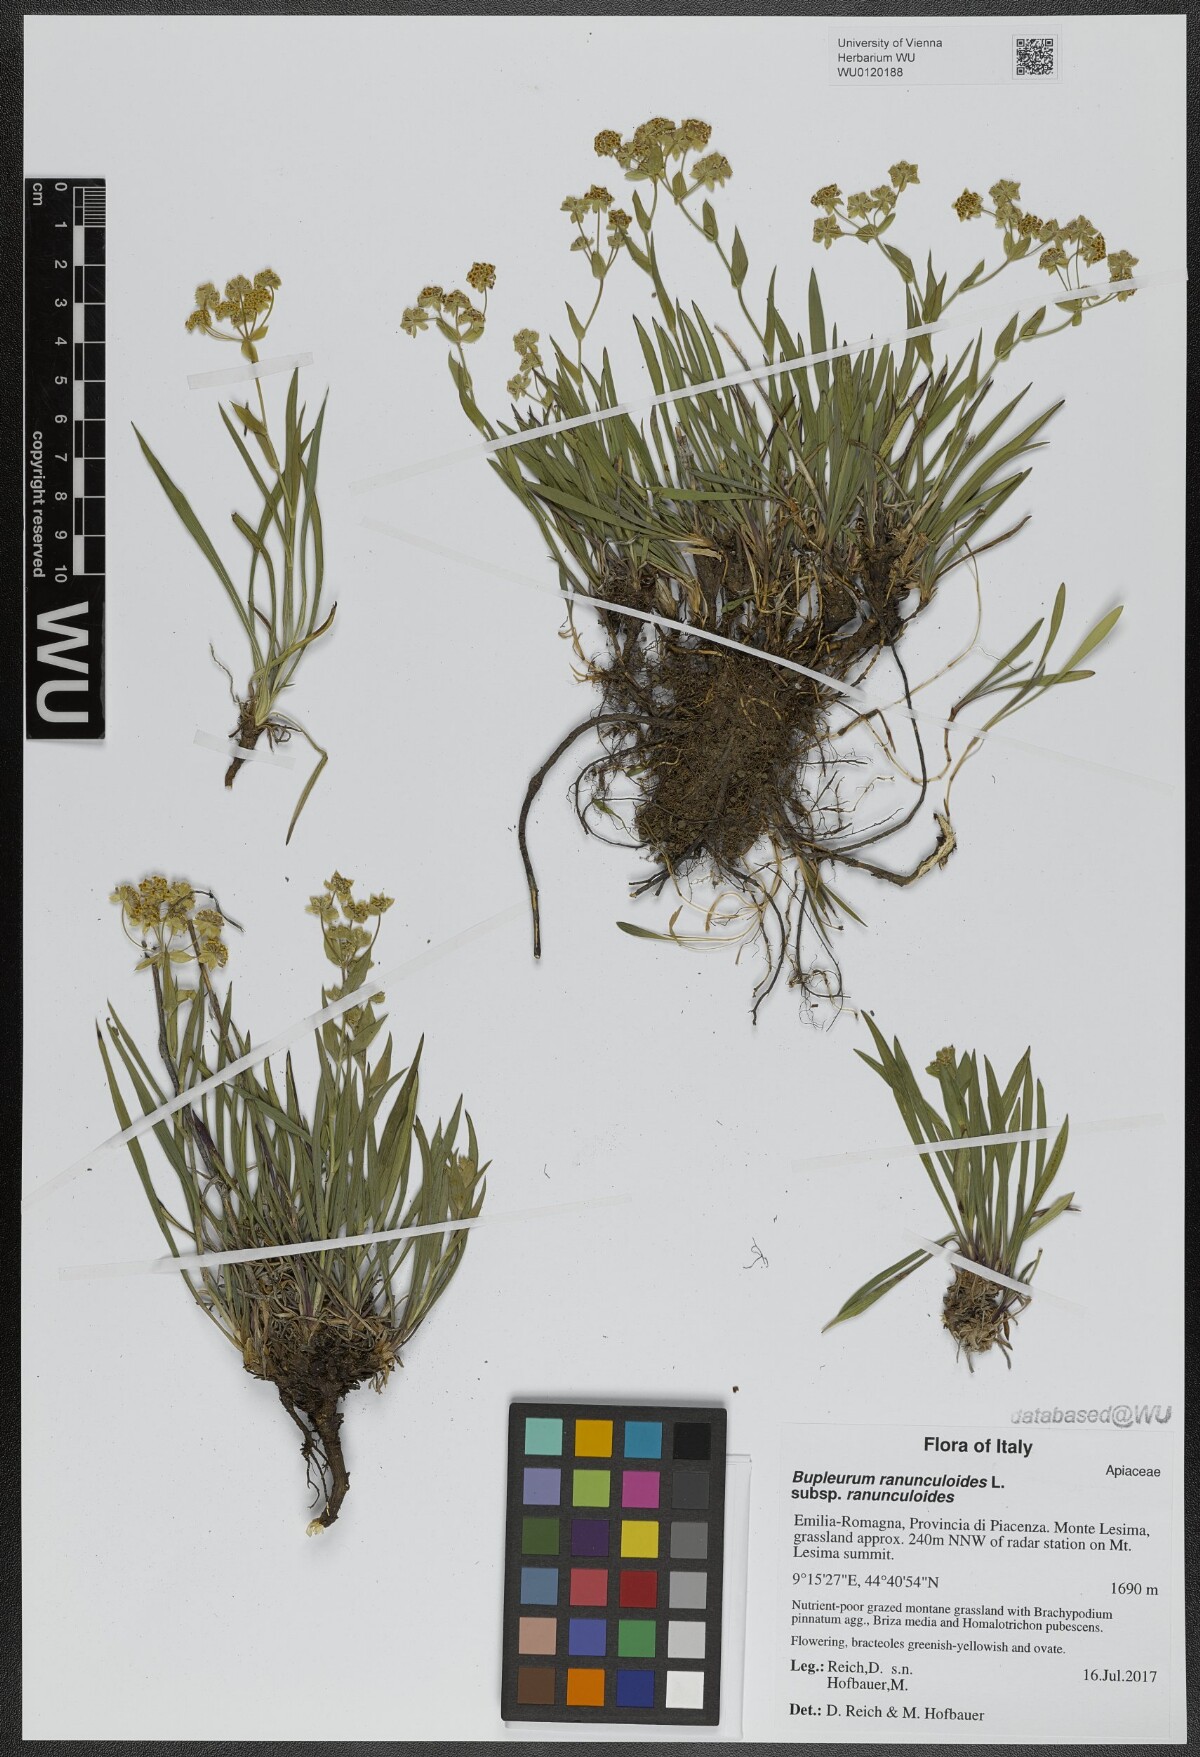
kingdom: Plantae
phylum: Tracheophyta
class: Magnoliopsida
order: Apiales
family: Apiaceae
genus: Bupleurum
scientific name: Bupleurum ranunculoides
